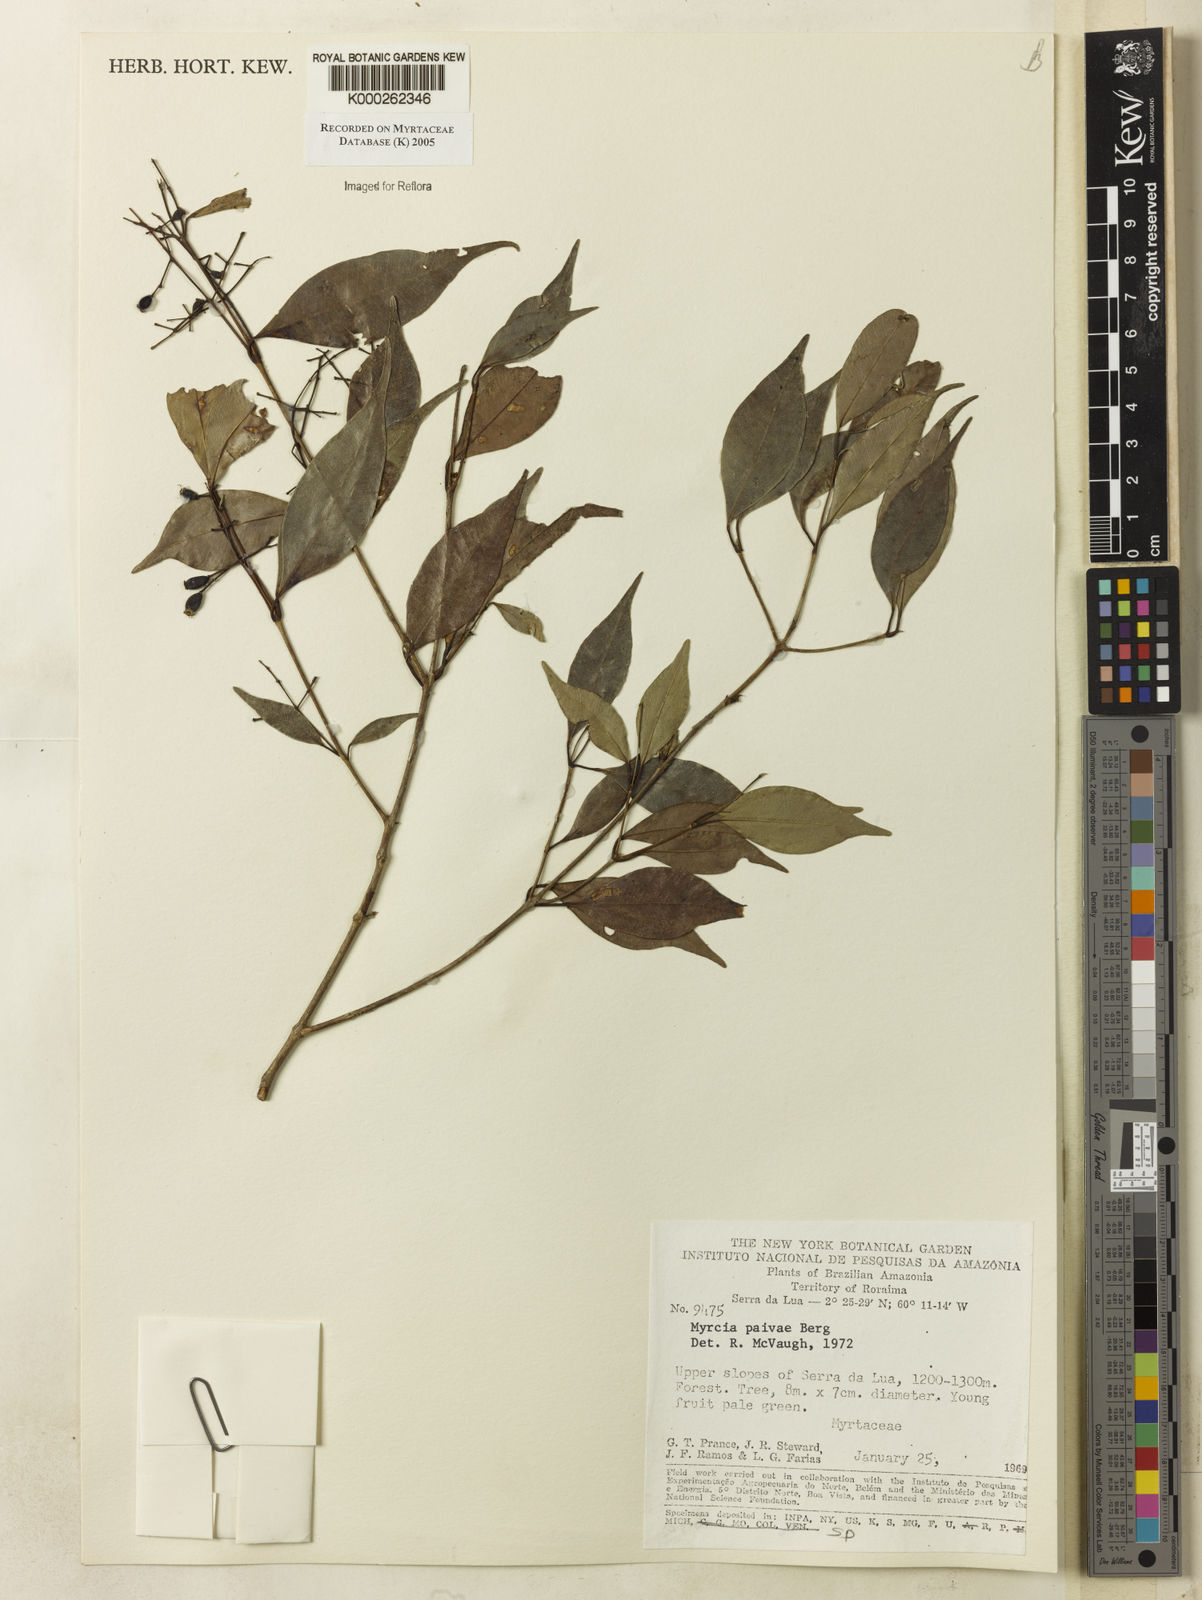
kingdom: Plantae
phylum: Tracheophyta
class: Magnoliopsida
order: Myrtales
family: Myrtaceae
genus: Myrcia
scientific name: Myrcia paivae
